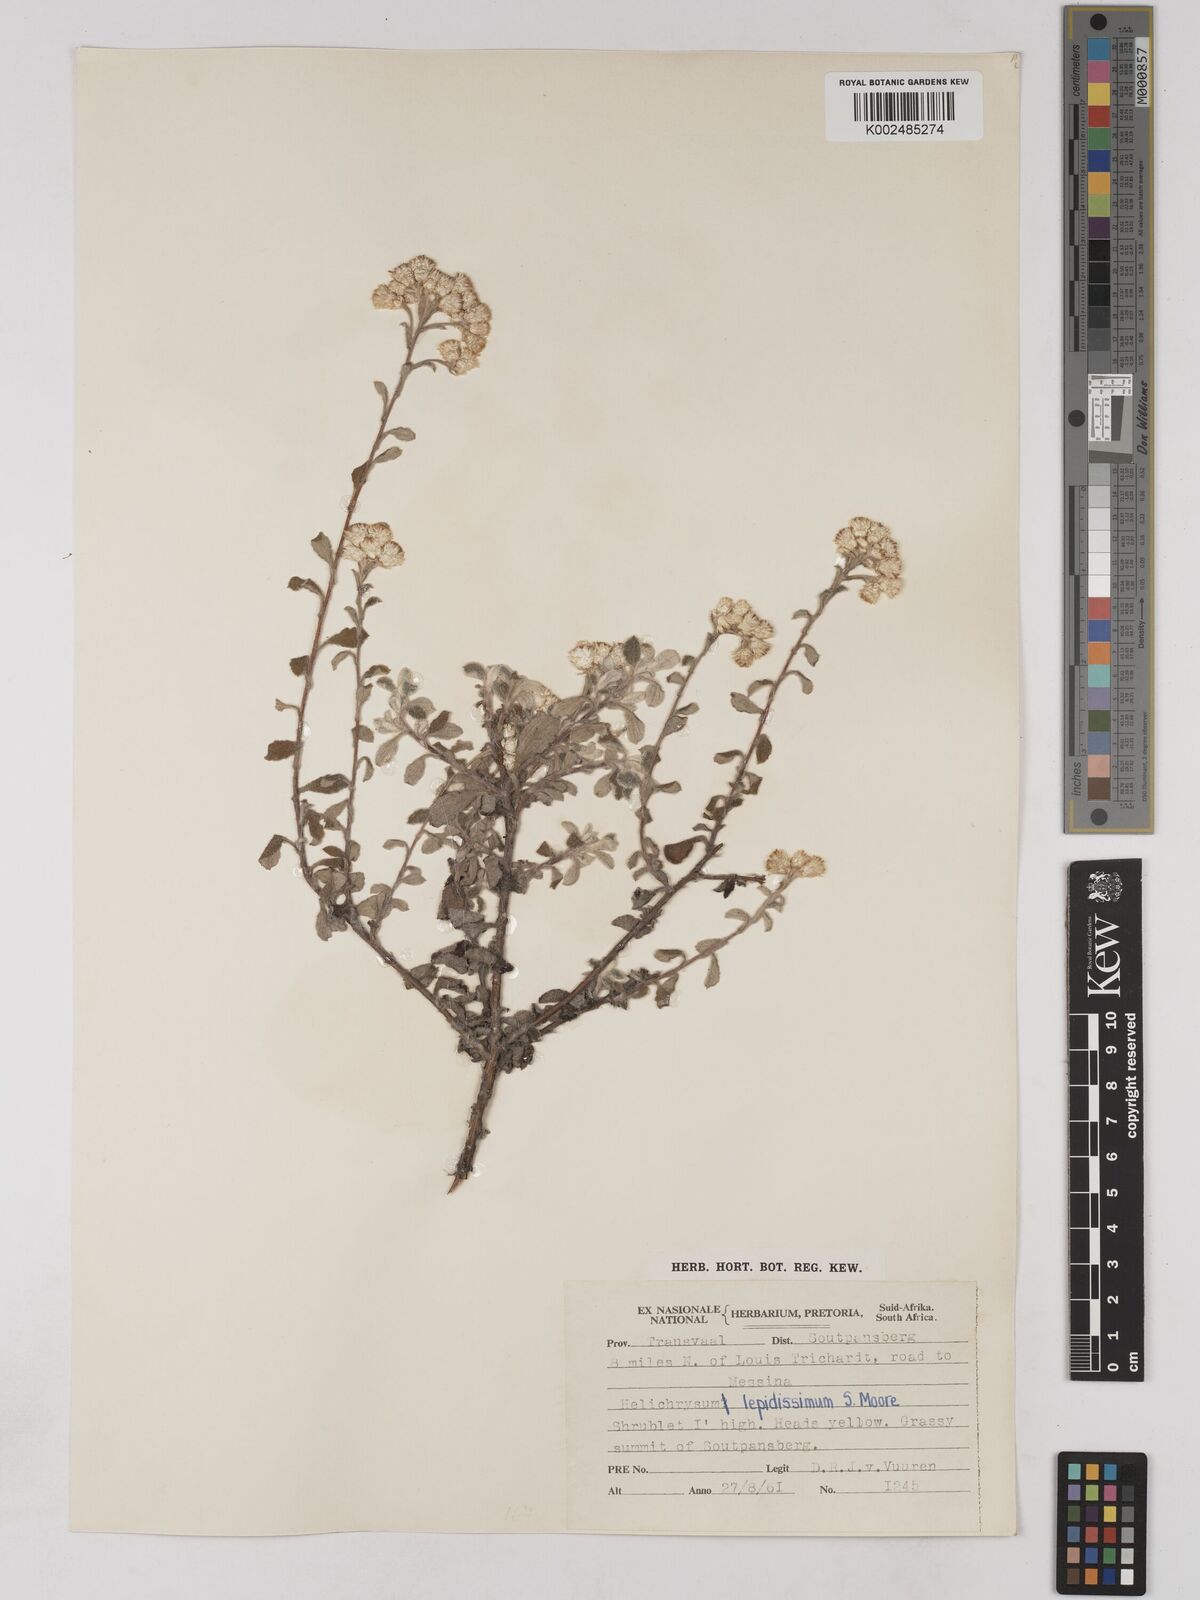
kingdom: Plantae
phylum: Tracheophyta
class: Magnoliopsida
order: Asterales
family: Asteraceae
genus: Helichrysum
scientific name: Helichrysum lepidissimum
